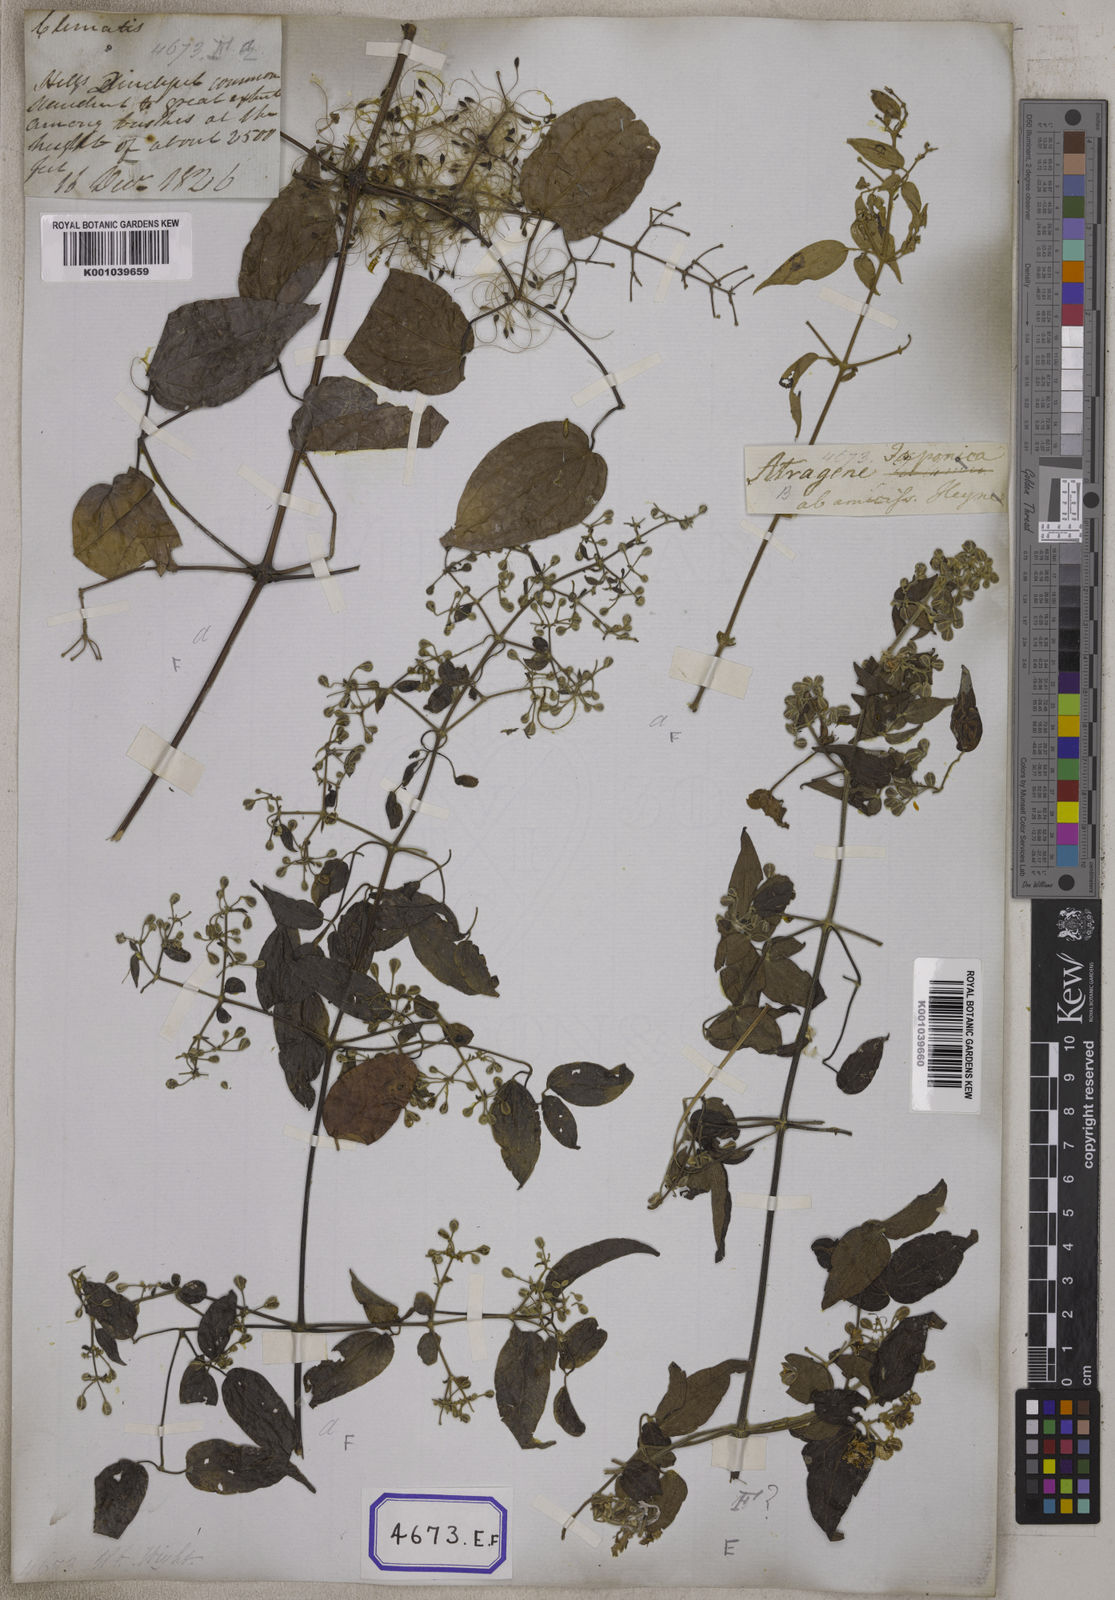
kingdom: Plantae
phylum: Tracheophyta
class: Magnoliopsida
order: Ranunculales
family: Ranunculaceae
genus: Clematis
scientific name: Clematis
